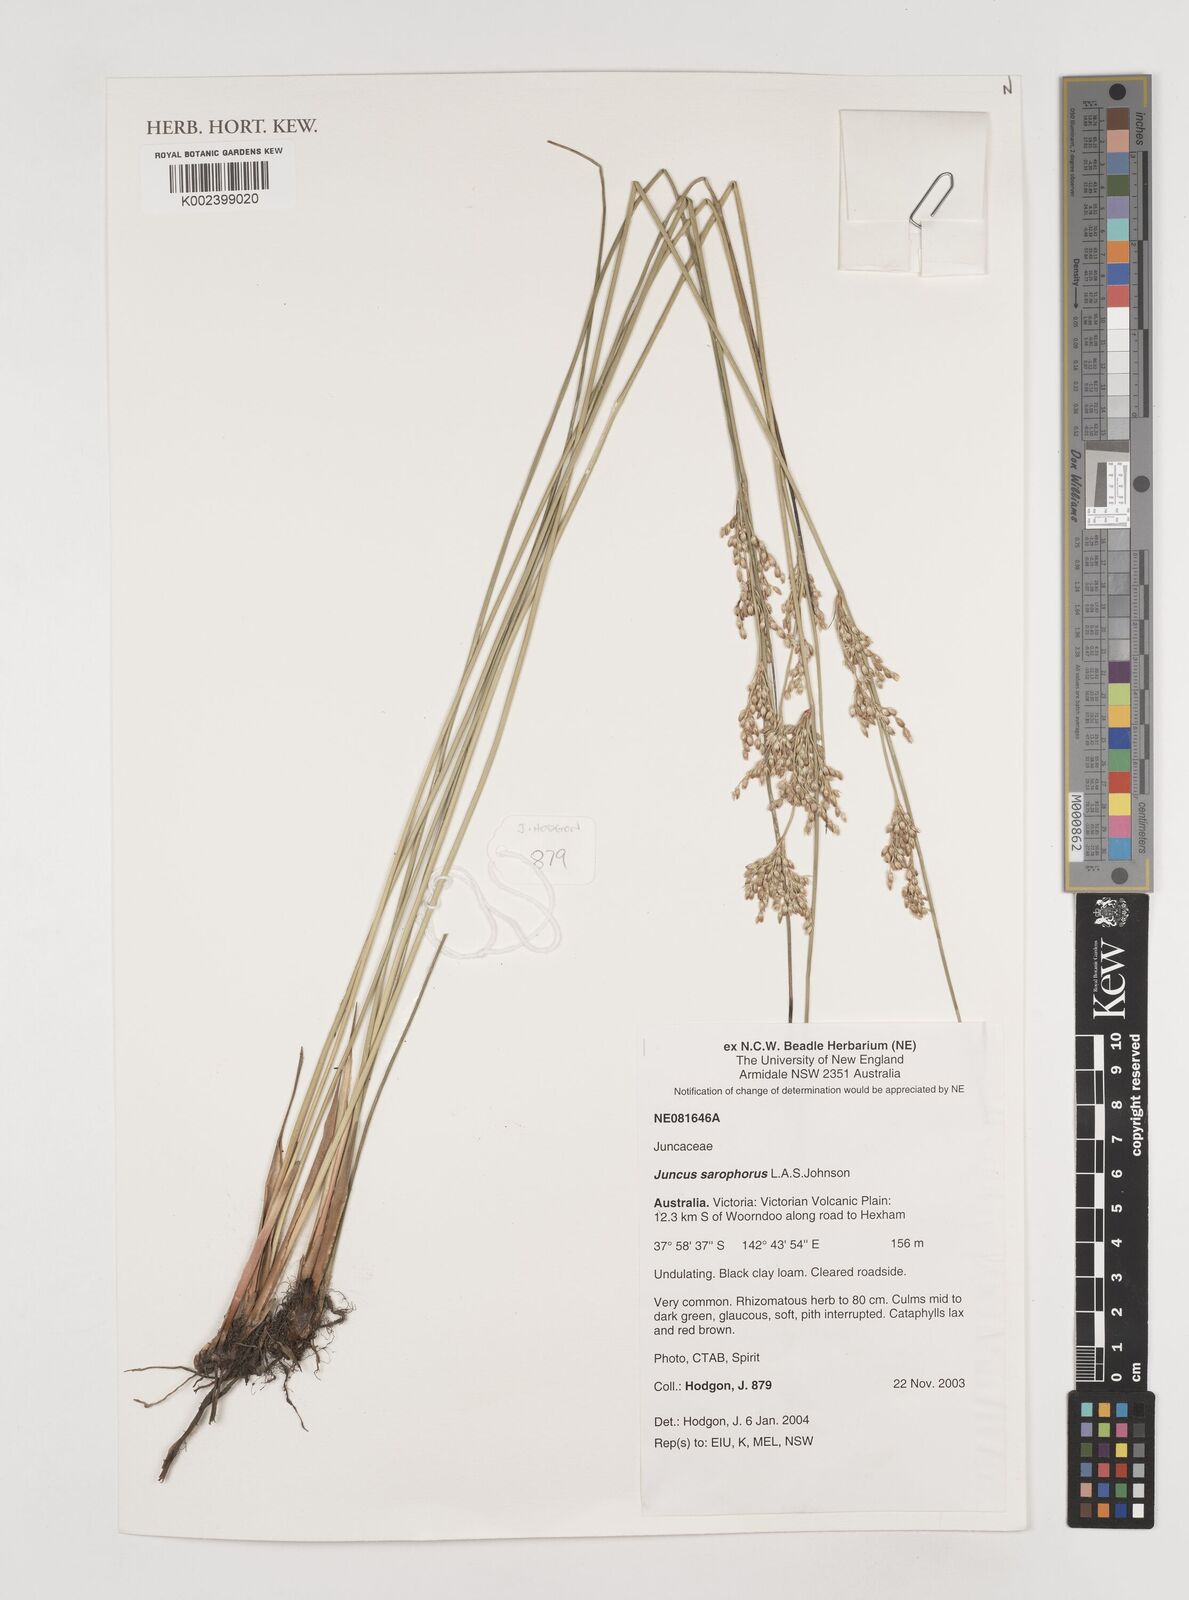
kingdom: Plantae
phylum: Tracheophyta
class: Liliopsida
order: Poales
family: Juncaceae
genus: Juncus
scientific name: Juncus sarophorus
